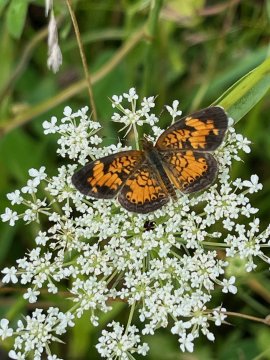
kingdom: Animalia
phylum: Arthropoda
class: Insecta
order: Lepidoptera
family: Nymphalidae
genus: Phyciodes
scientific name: Phyciodes
